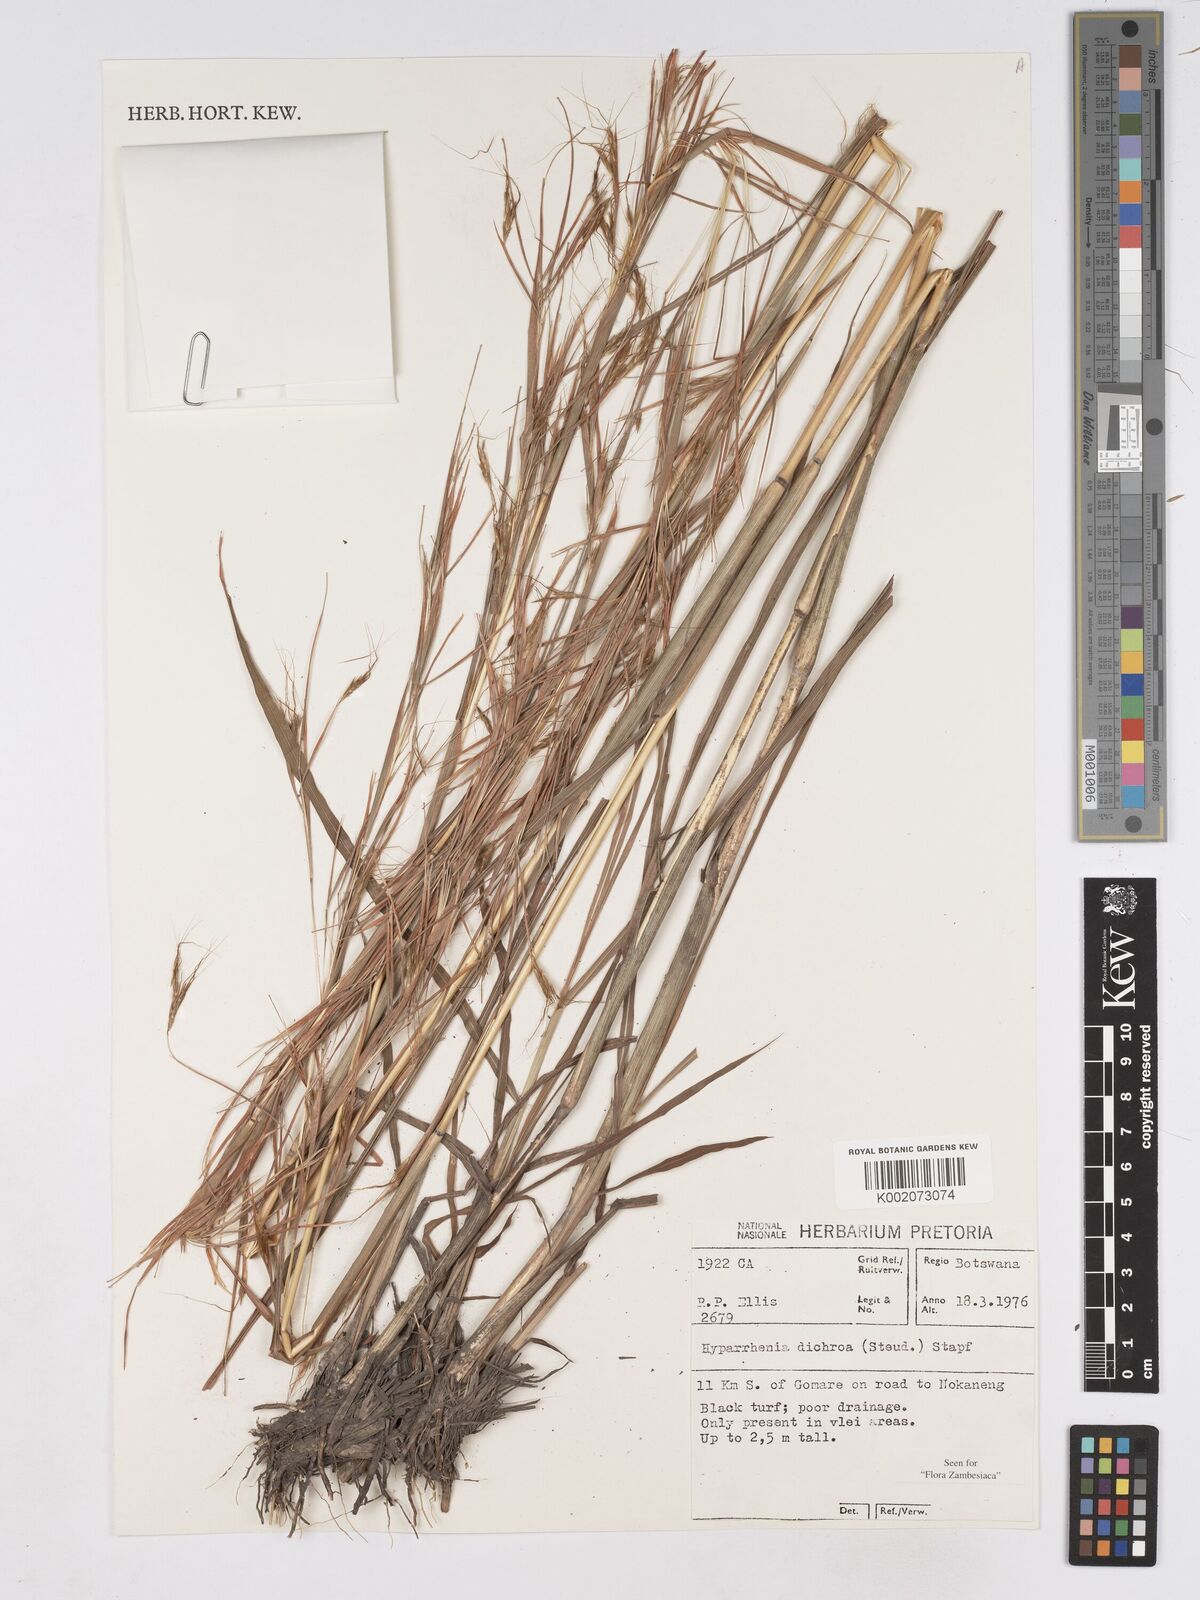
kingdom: Plantae
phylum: Tracheophyta
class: Liliopsida
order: Poales
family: Poaceae
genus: Hyparrhenia
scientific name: Hyparrhenia dichroa
